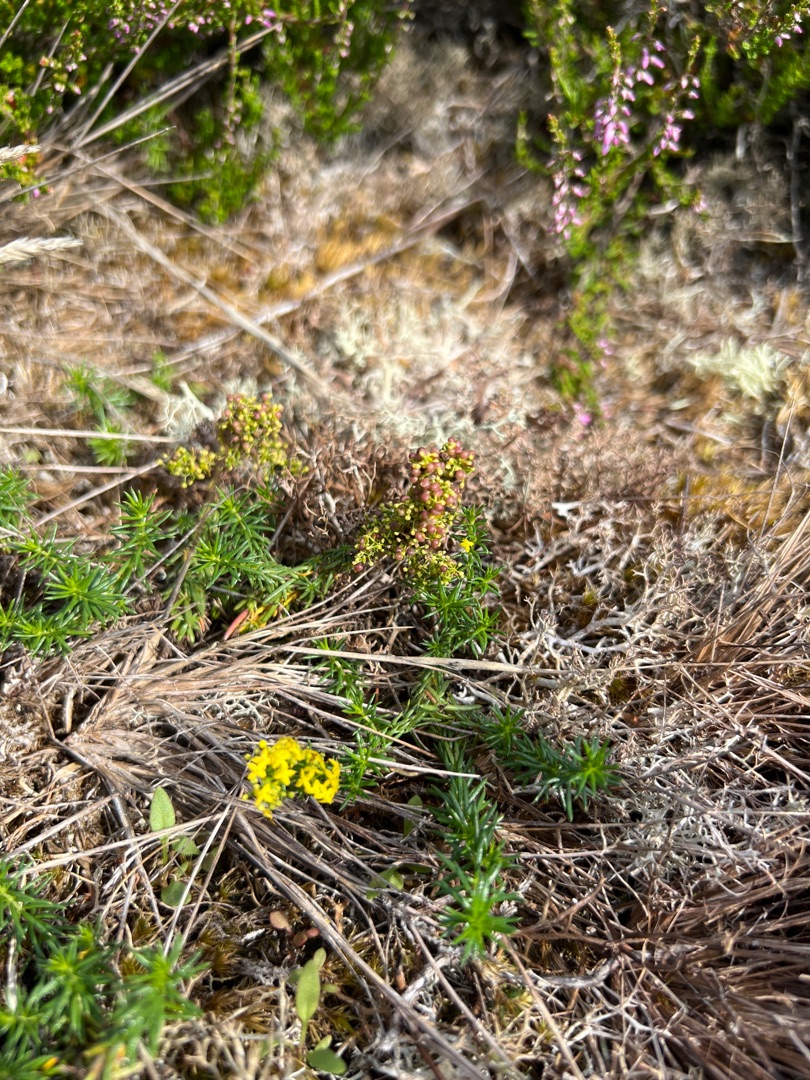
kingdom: Plantae
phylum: Tracheophyta
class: Magnoliopsida
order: Gentianales
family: Rubiaceae
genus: Galium
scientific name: Galium verum
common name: Gul snerre
